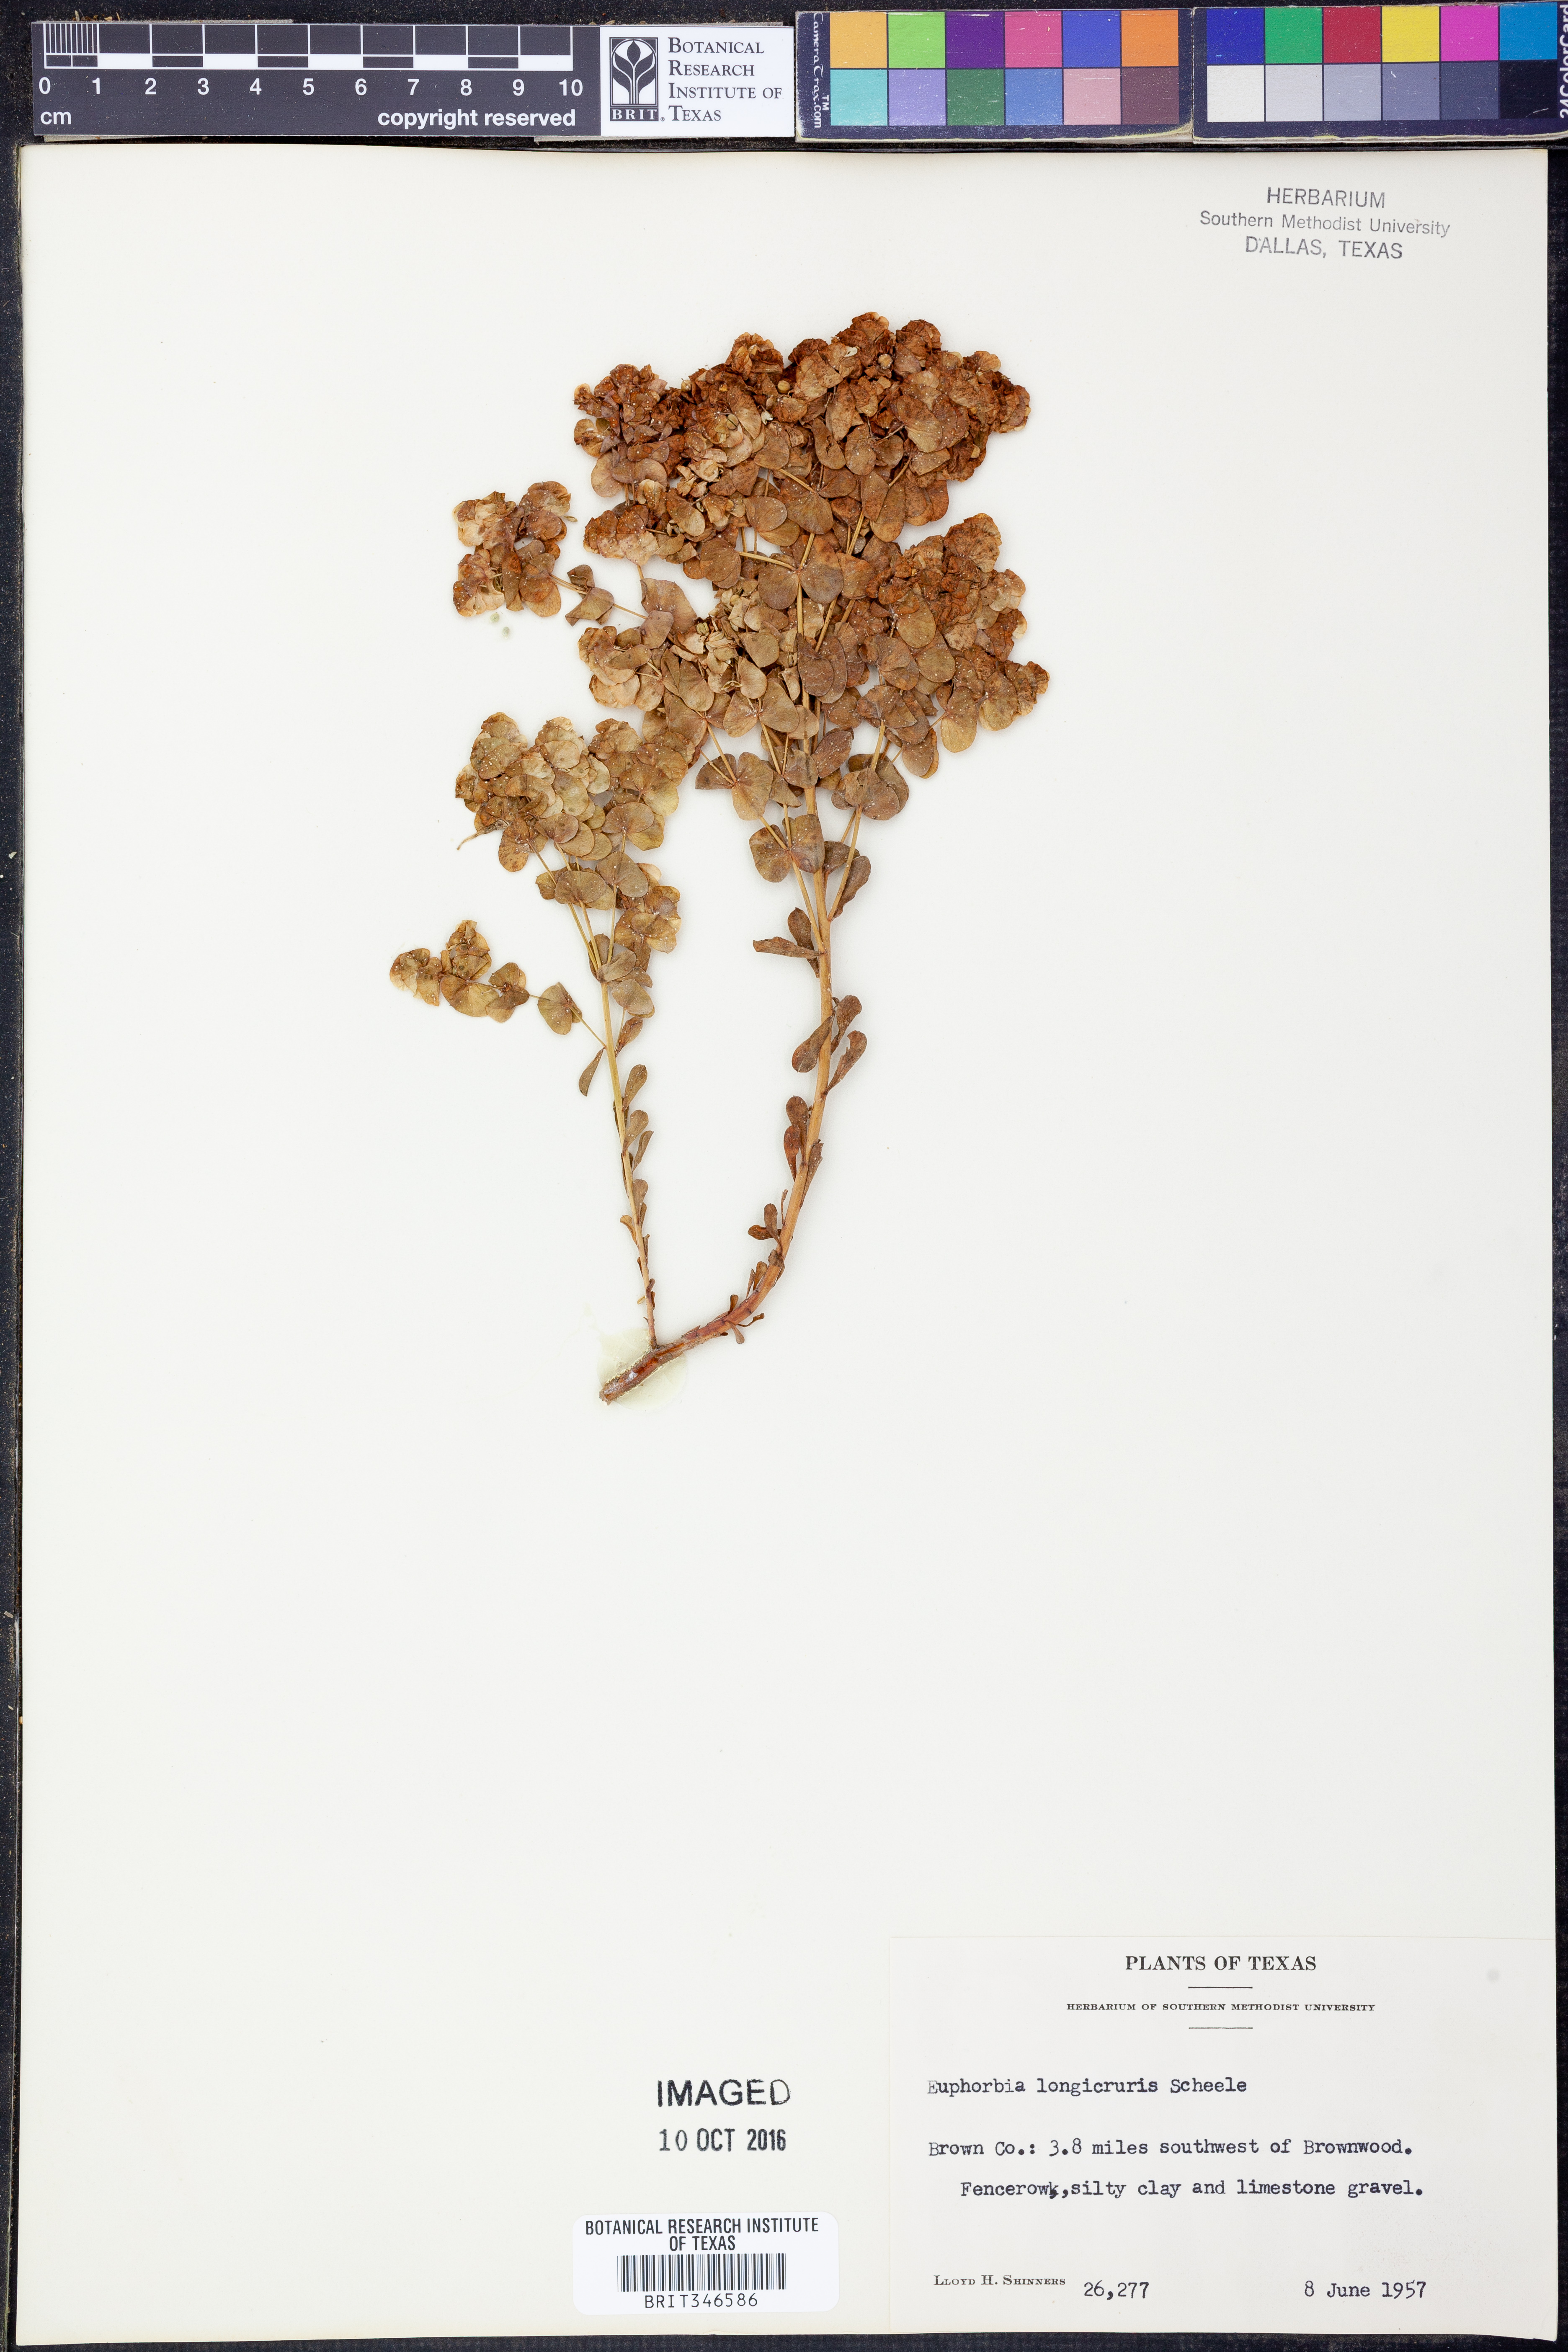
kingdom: Plantae
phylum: Tracheophyta
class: Magnoliopsida
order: Malpighiales
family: Euphorbiaceae
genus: Euphorbia
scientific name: Euphorbia longicruris
